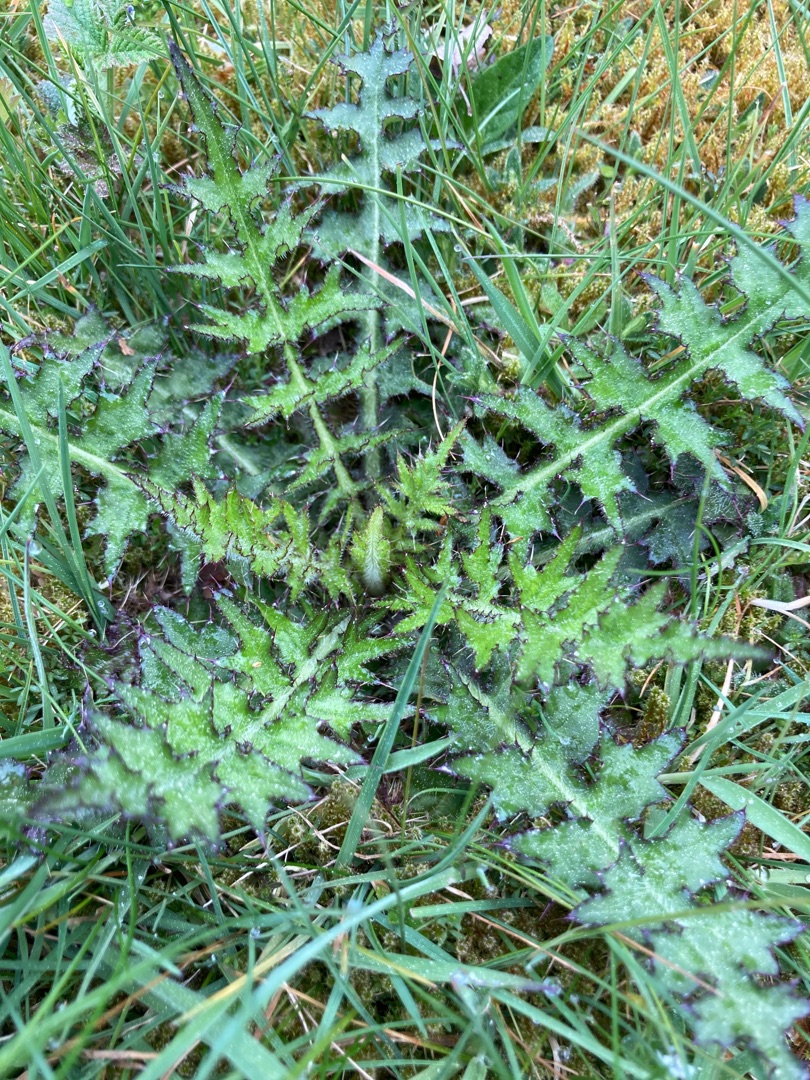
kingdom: Plantae
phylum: Tracheophyta
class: Magnoliopsida
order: Asterales
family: Asteraceae
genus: Cirsium
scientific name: Cirsium palustre
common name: Kær-tidsel
